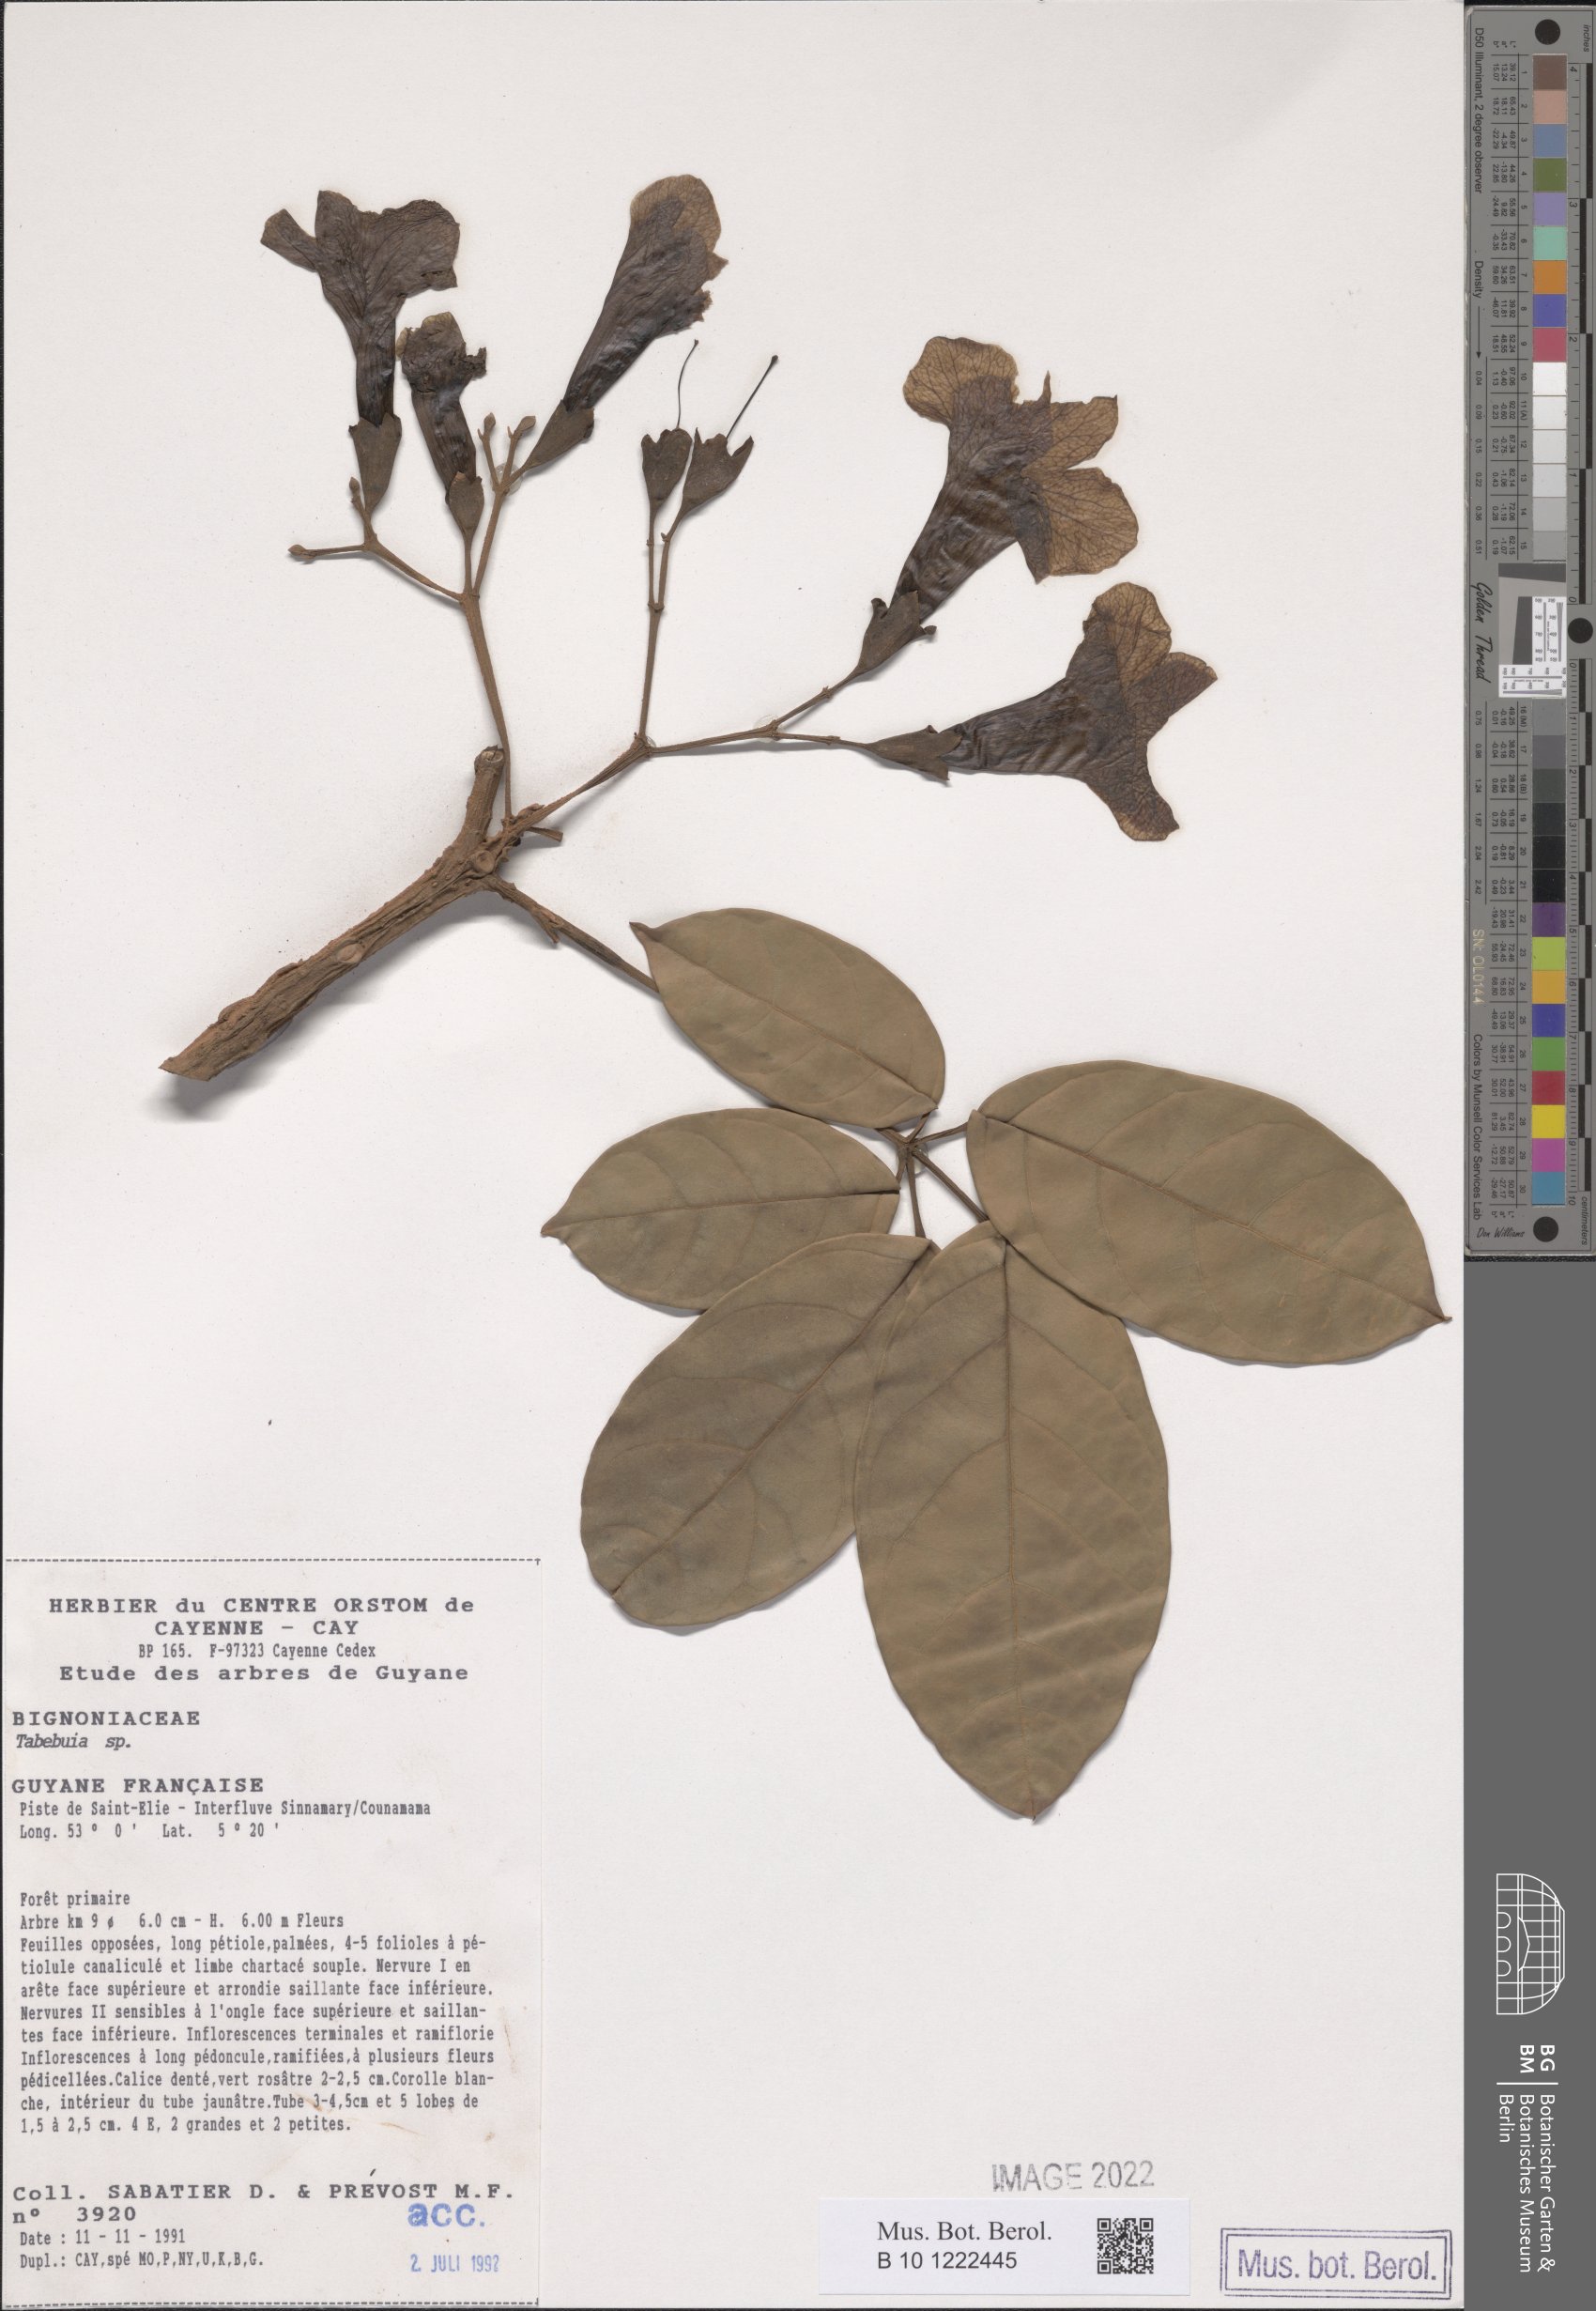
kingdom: Plantae
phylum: Tracheophyta
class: Magnoliopsida
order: Lamiales
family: Bignoniaceae
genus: Tabebuia
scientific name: Tabebuia
